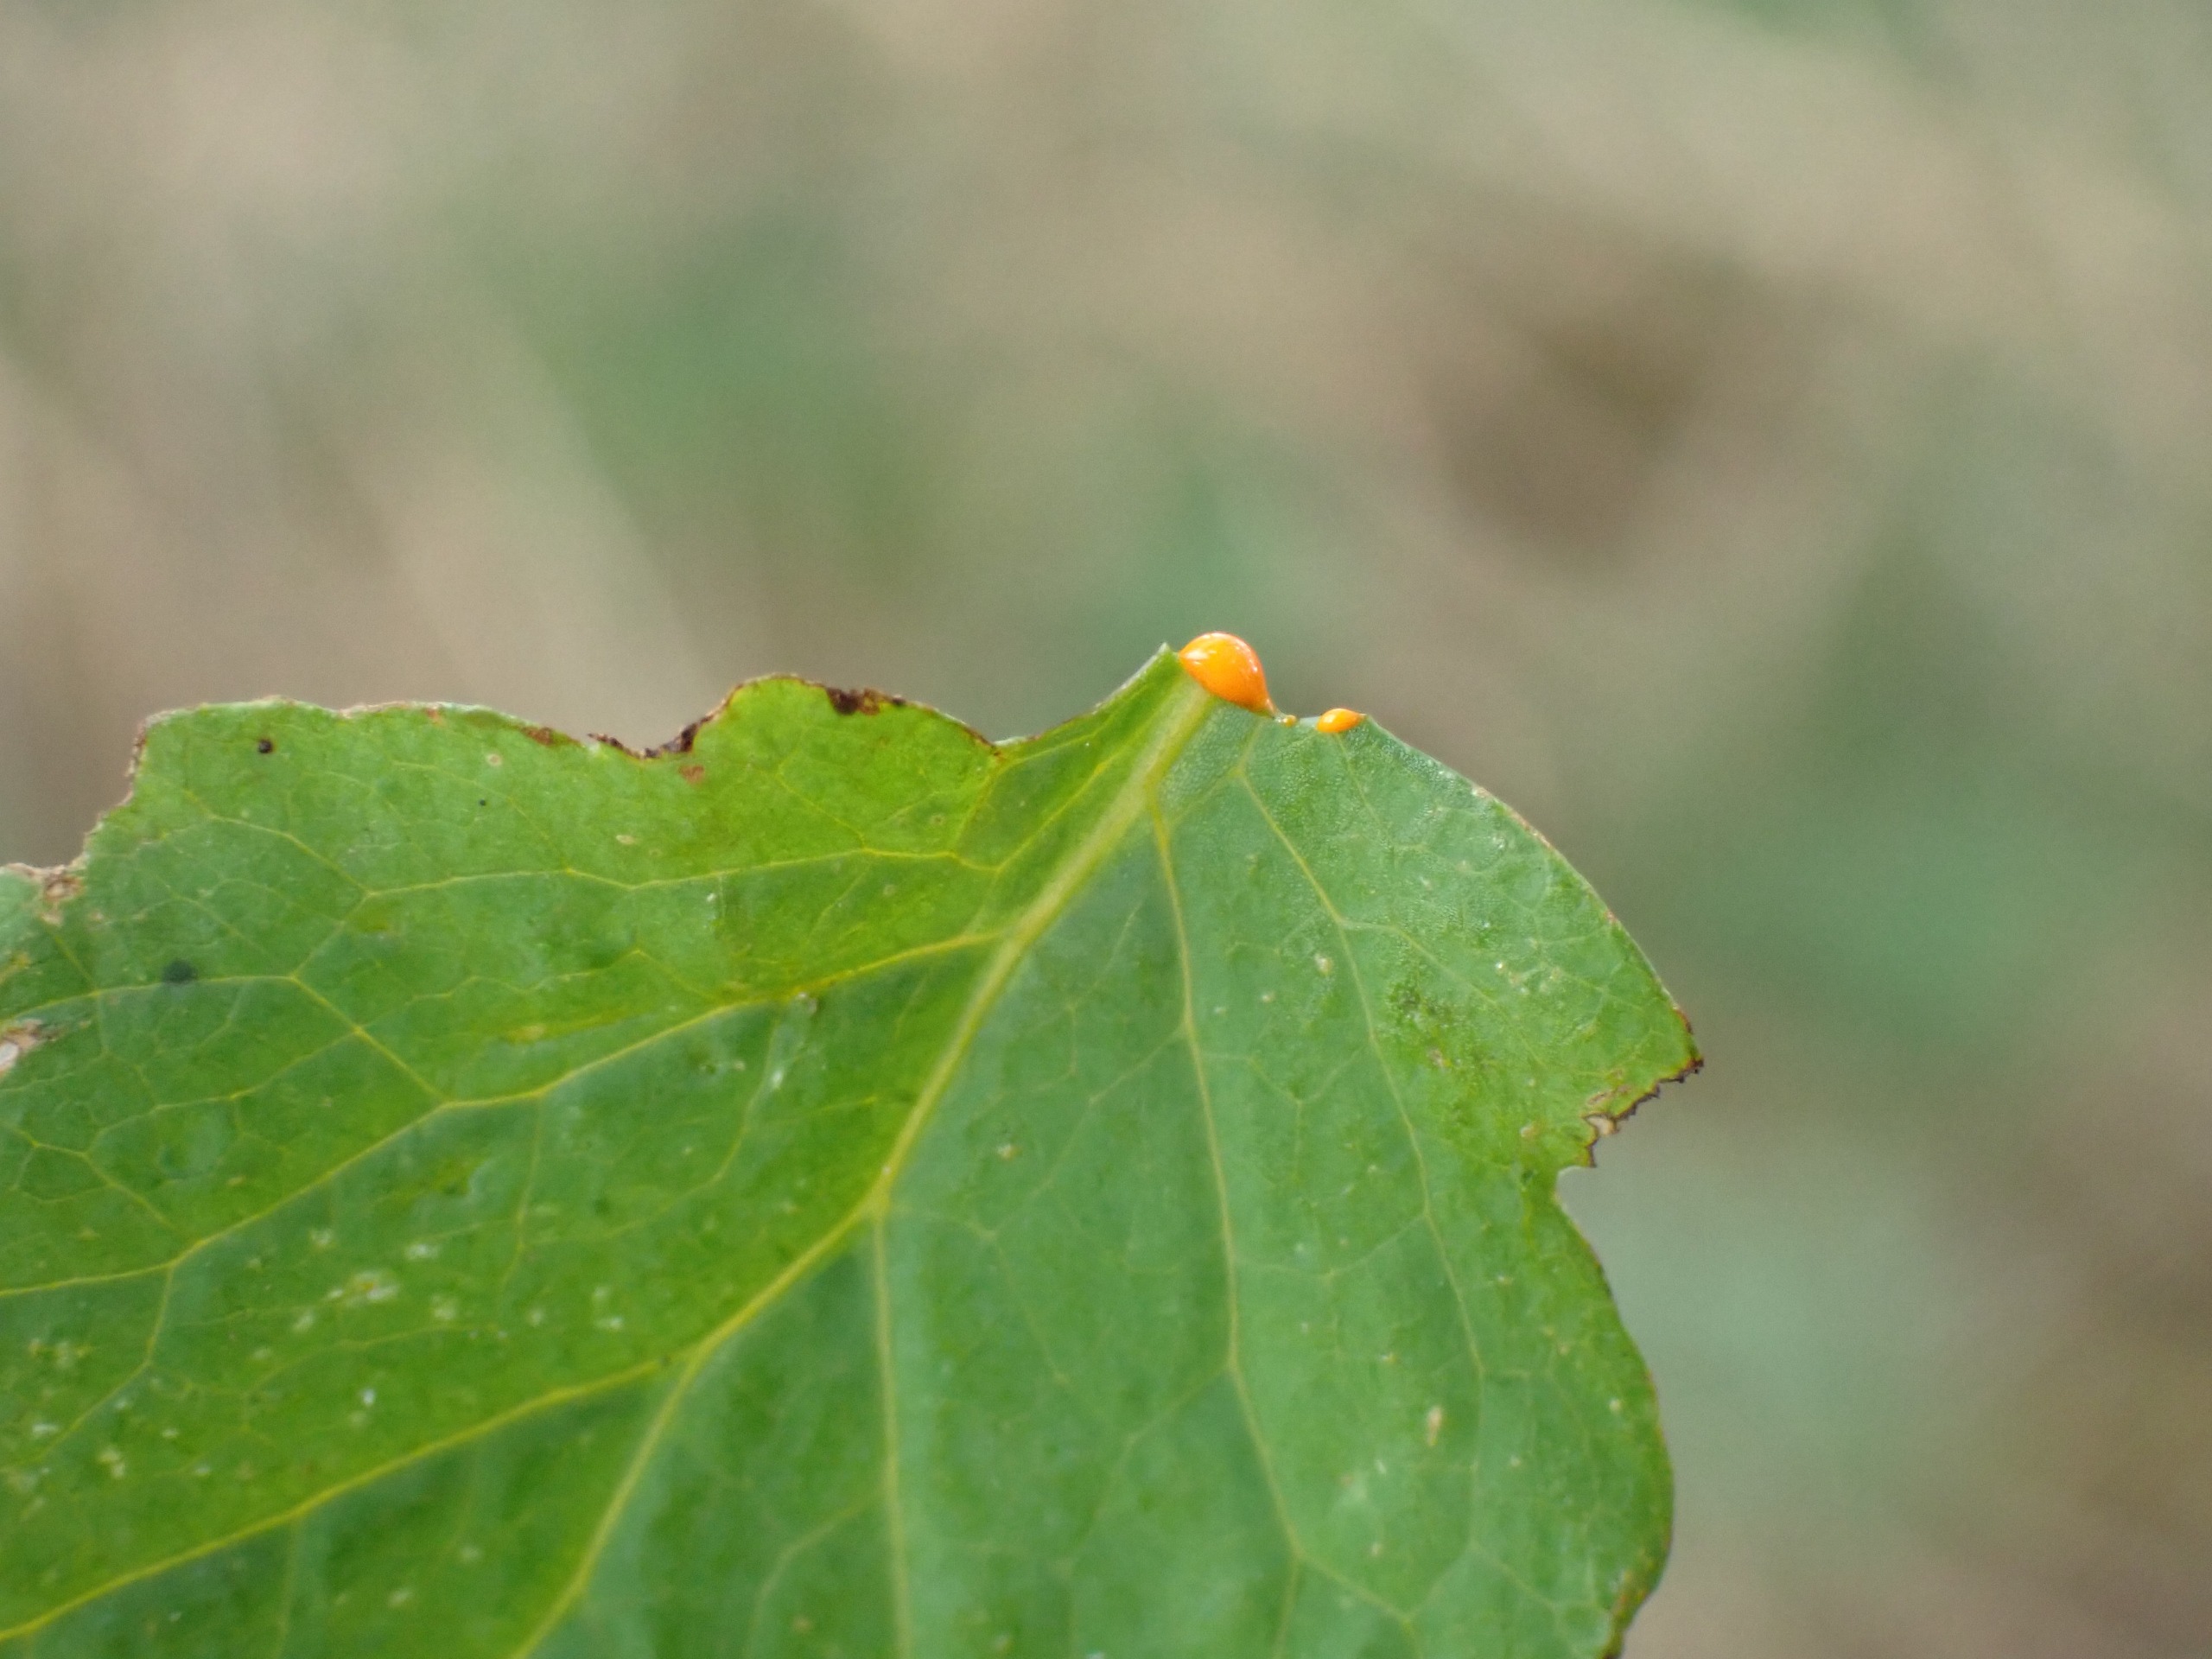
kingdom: Plantae
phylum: Tracheophyta
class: Magnoliopsida
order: Ranunculales
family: Papaveraceae
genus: Chelidonium
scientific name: Chelidonium majus
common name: Svaleurt
